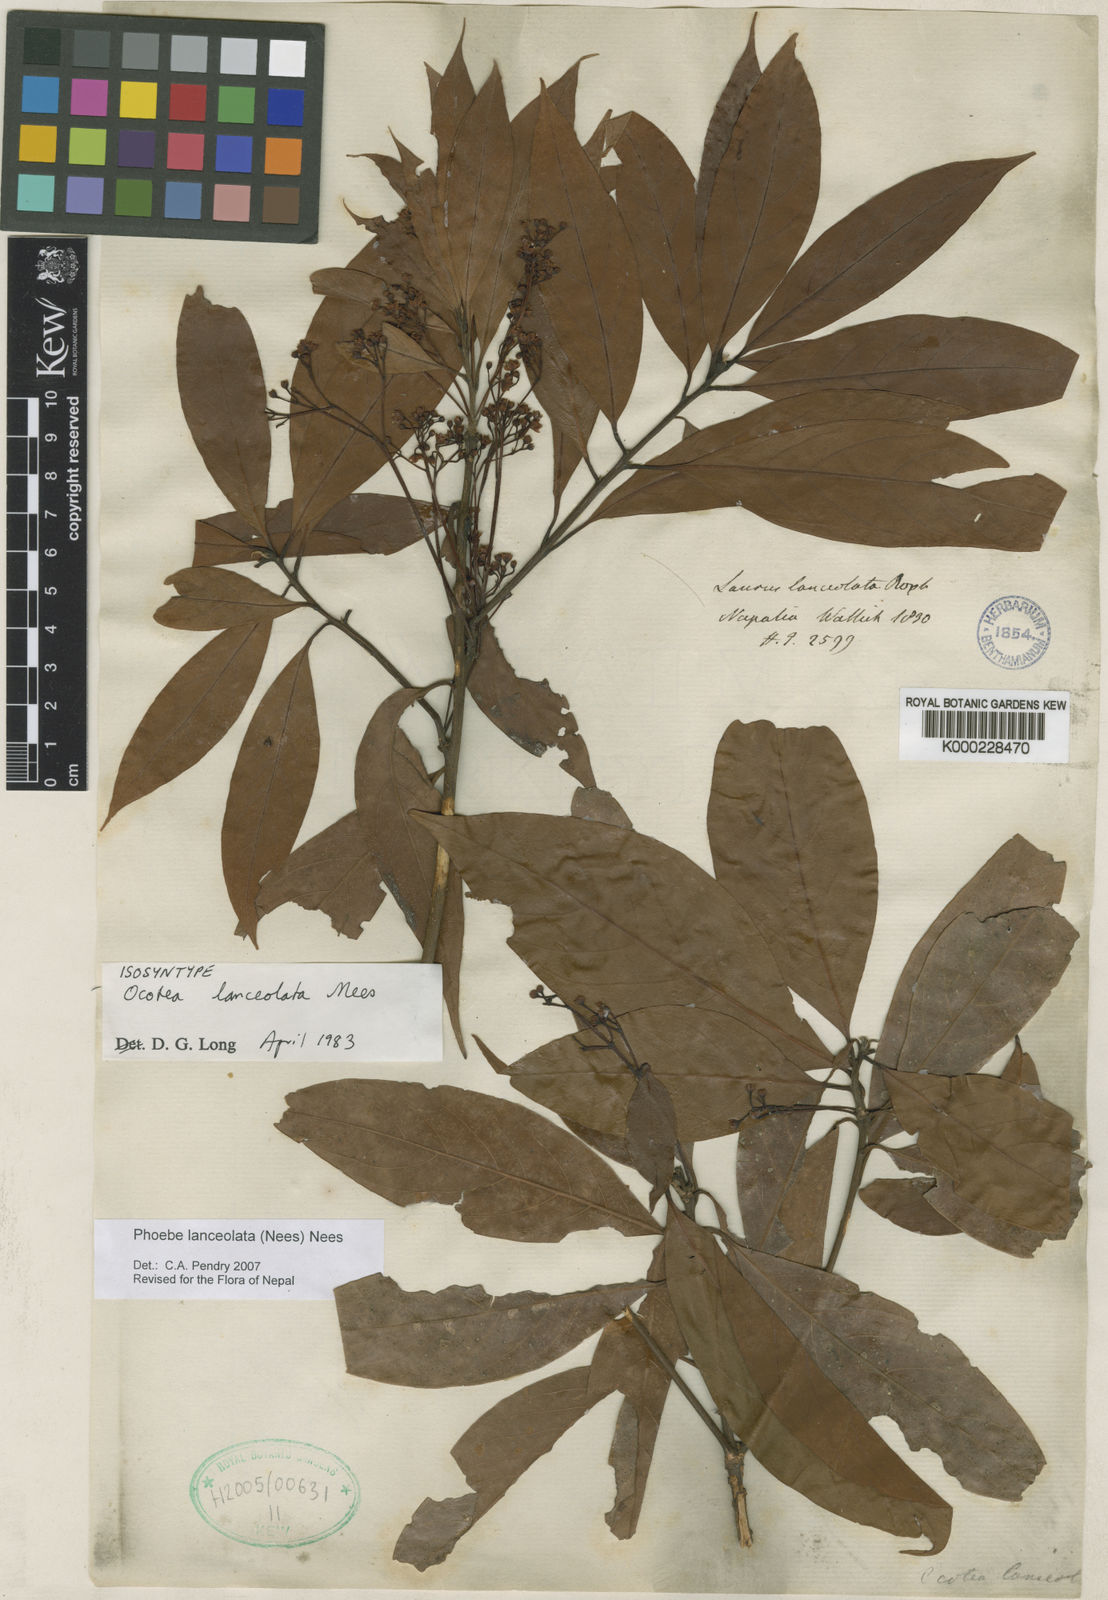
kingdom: Plantae
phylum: Tracheophyta
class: Magnoliopsida
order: Laurales
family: Lauraceae
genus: Phoebe
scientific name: Phoebe lanceolata
